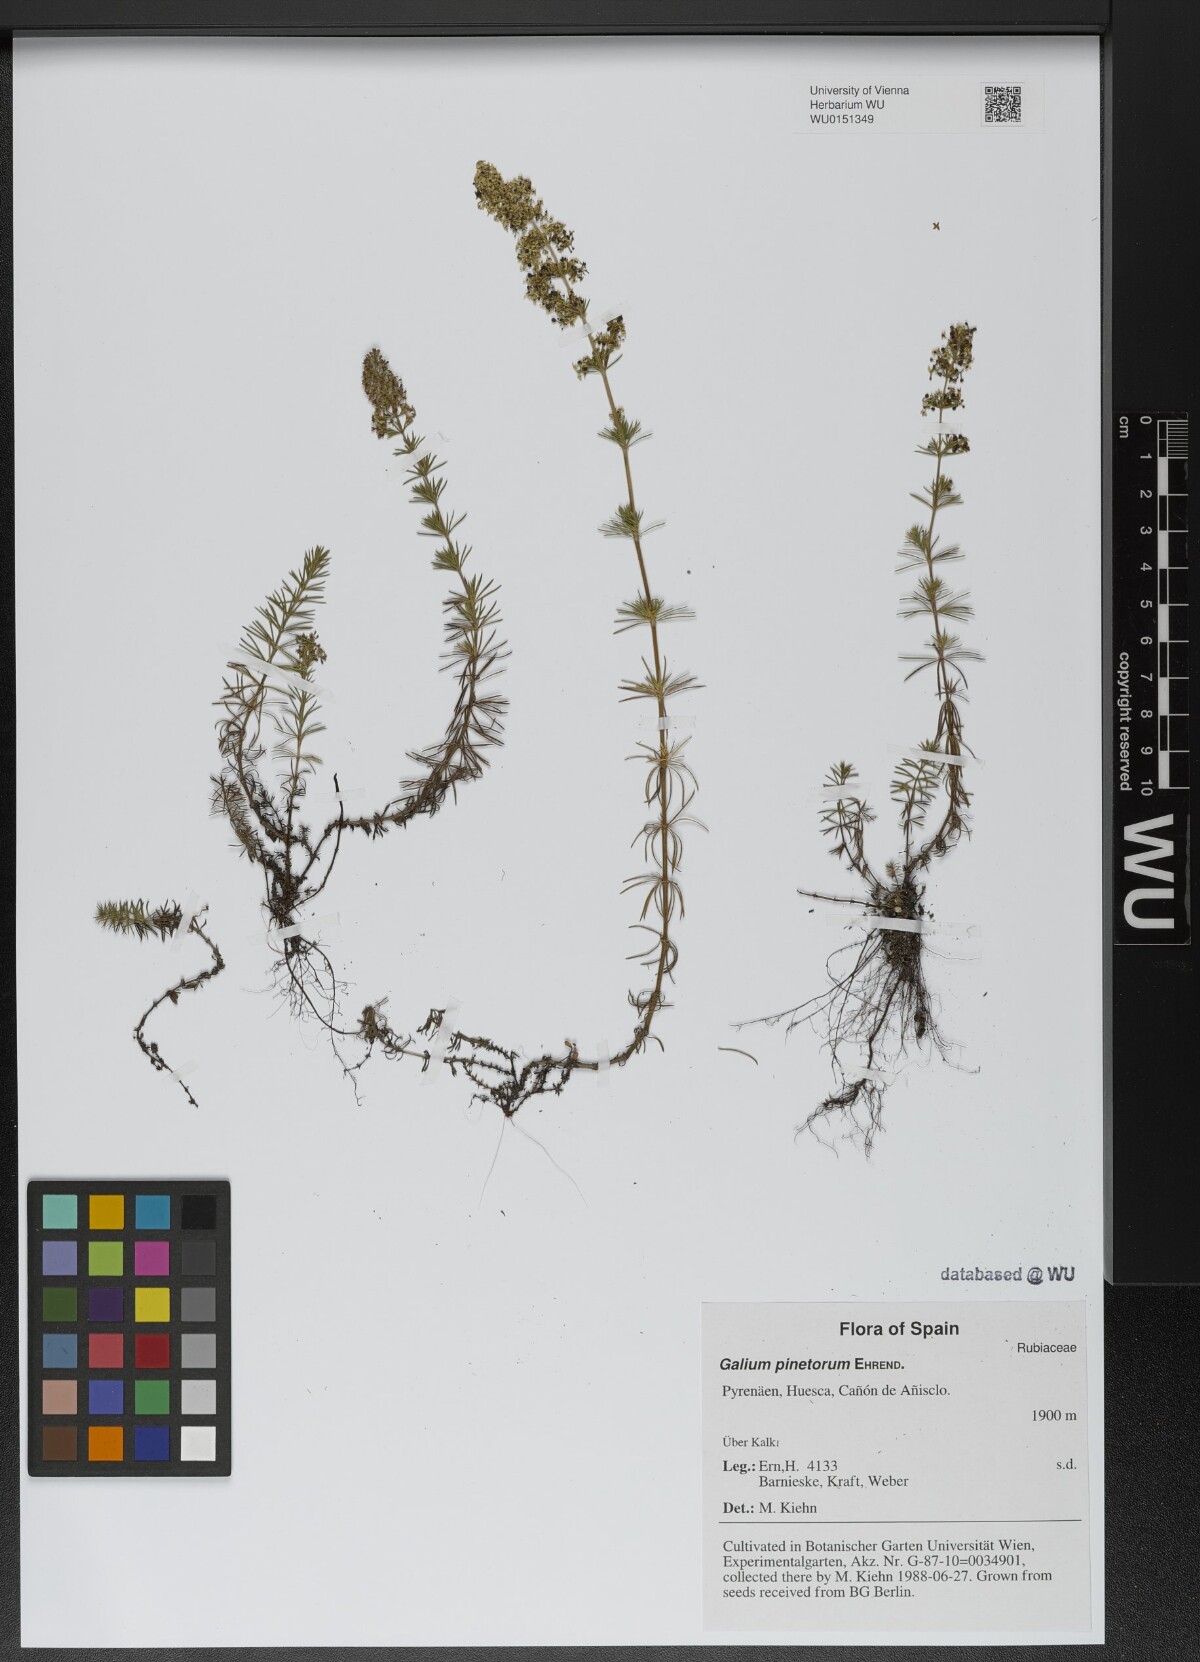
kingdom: Plantae
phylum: Tracheophyta
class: Magnoliopsida
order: Gentianales
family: Rubiaceae
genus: Galium
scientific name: Galium estebanii
